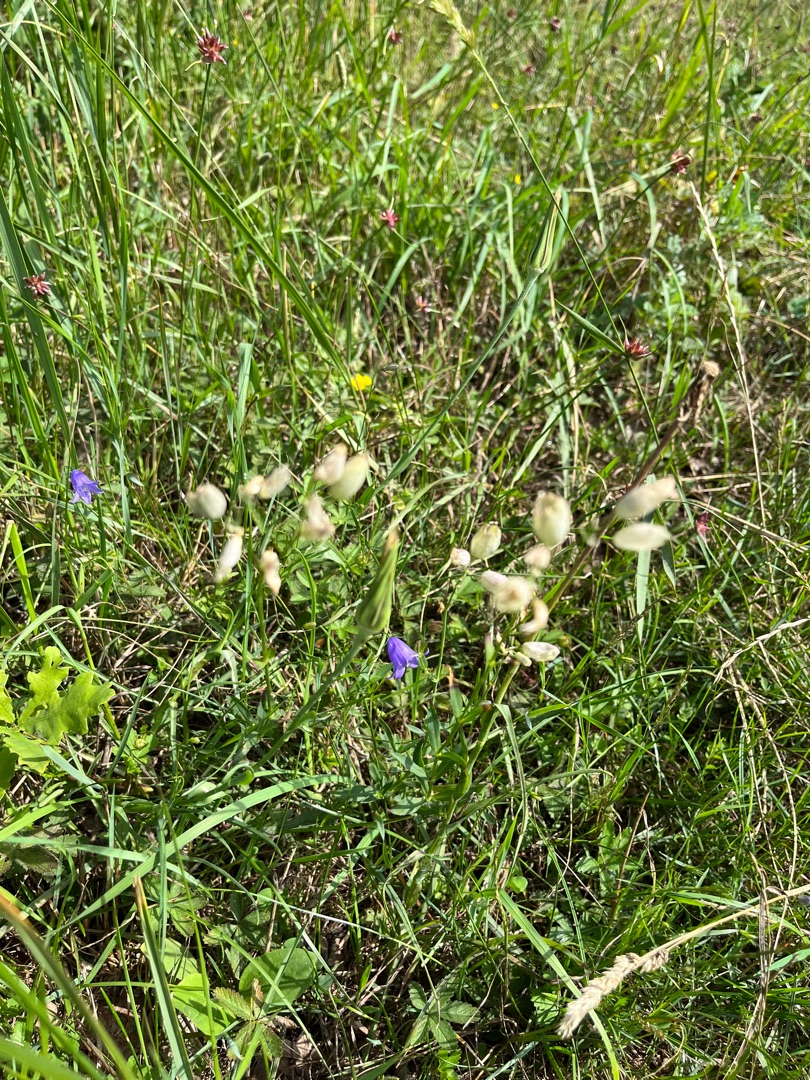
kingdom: Plantae
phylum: Tracheophyta
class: Magnoliopsida
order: Caryophyllales
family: Caryophyllaceae
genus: Silene
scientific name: Silene vulgaris
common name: Blæresmælde
